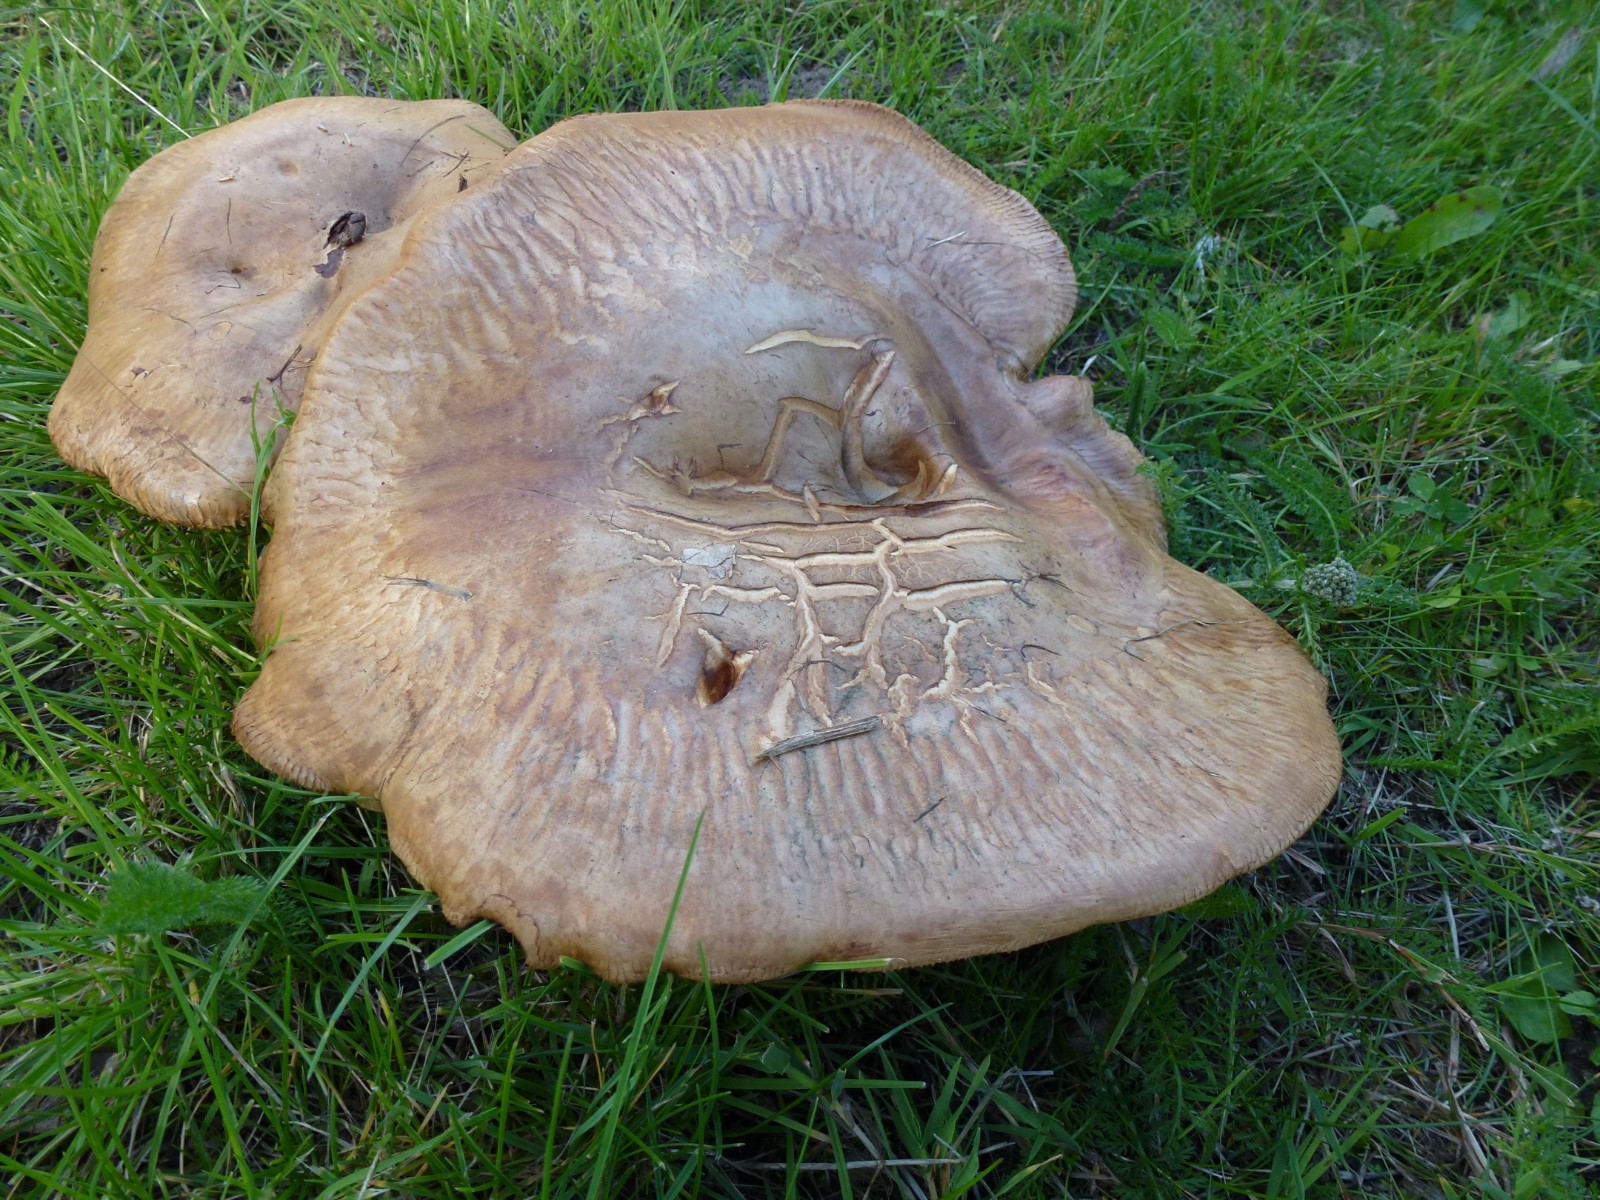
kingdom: Fungi
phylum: Basidiomycota
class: Agaricomycetes
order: Boletales
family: Paxillaceae
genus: Paxillus
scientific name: Paxillus
